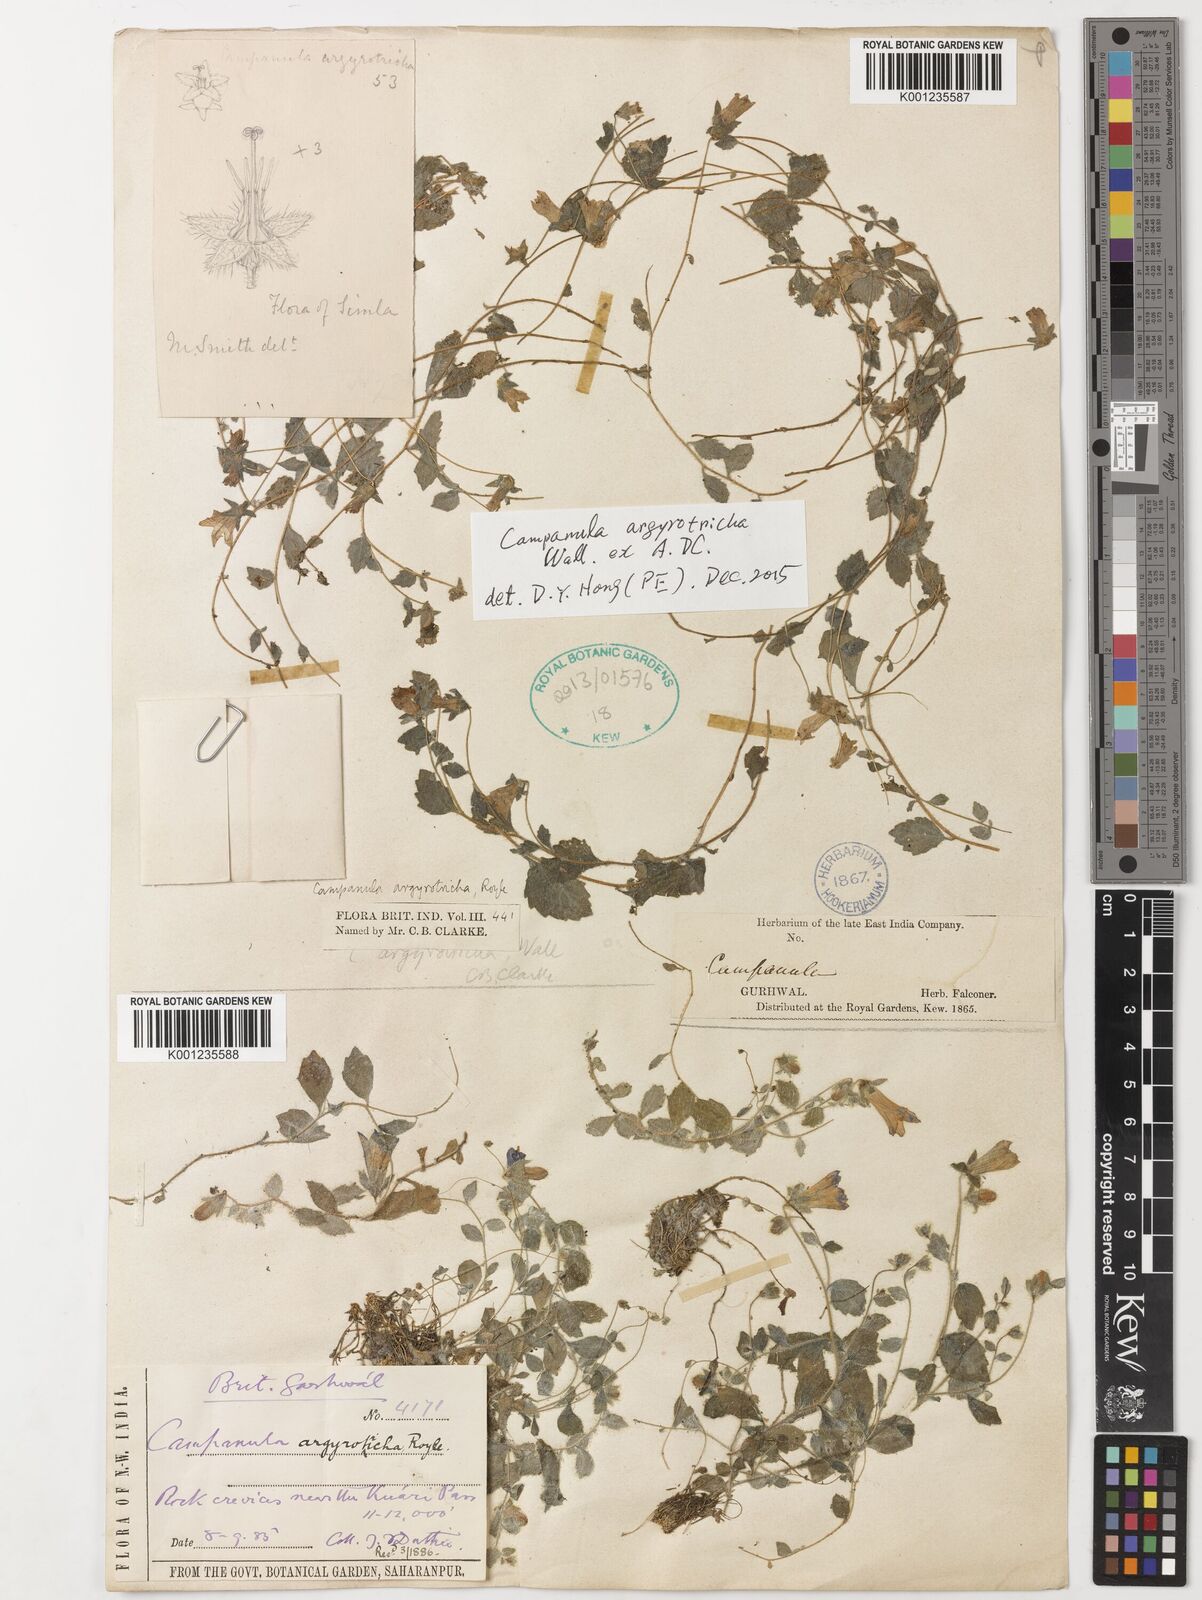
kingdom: Plantae
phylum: Tracheophyta
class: Magnoliopsida
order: Asterales
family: Campanulaceae
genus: Campanula
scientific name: Campanula argyrotricha
